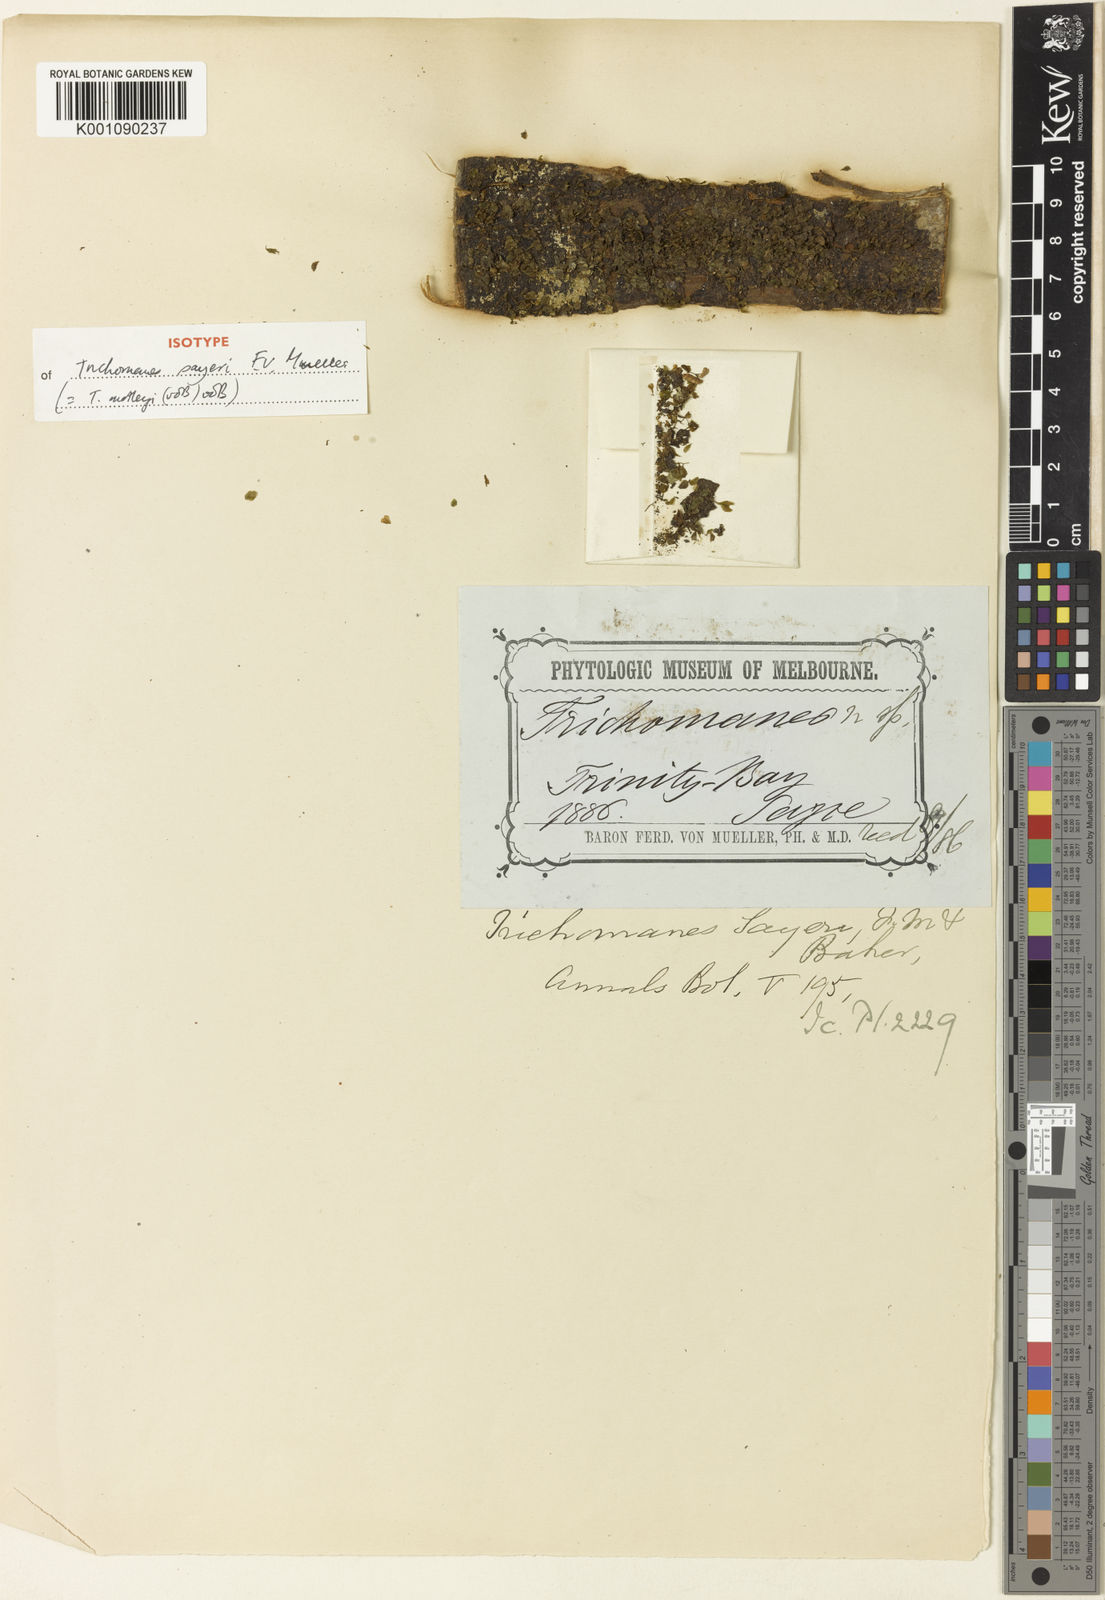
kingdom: Plantae
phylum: Tracheophyta
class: Polypodiopsida
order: Hymenophyllales
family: Hymenophyllaceae
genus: Didymoglossum
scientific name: Didymoglossum motleyi
